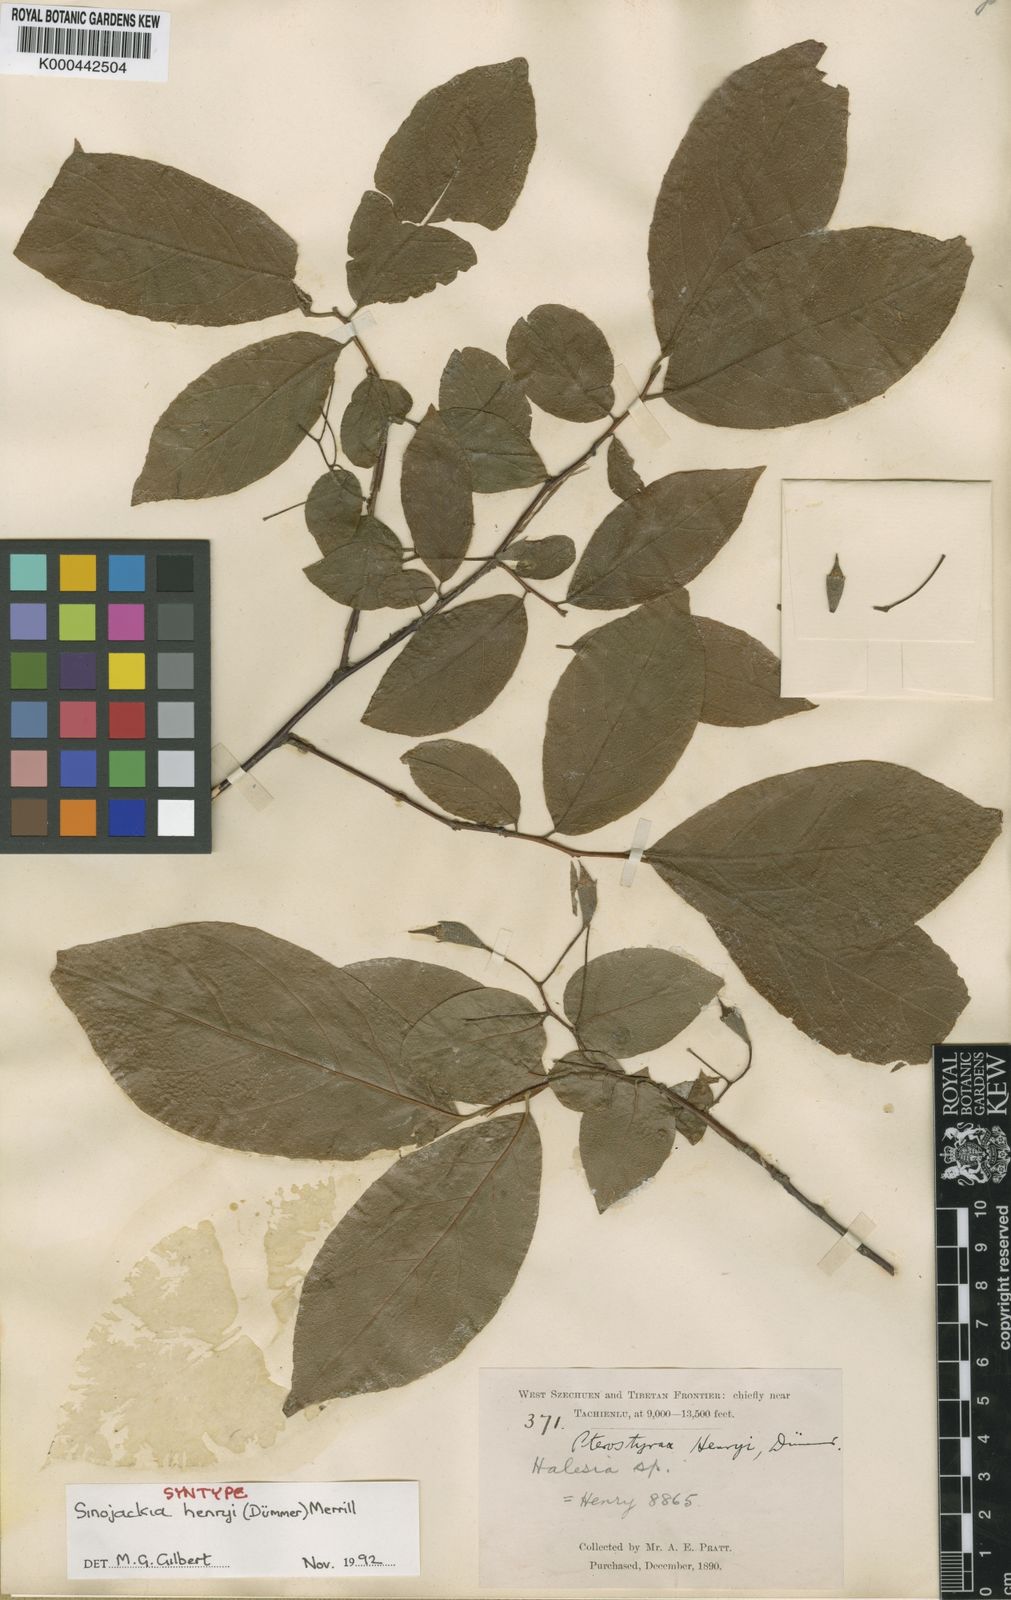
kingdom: Plantae
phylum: Tracheophyta
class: Magnoliopsida
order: Ericales
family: Styracaceae
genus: Sinojackia
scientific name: Sinojackia henryi
